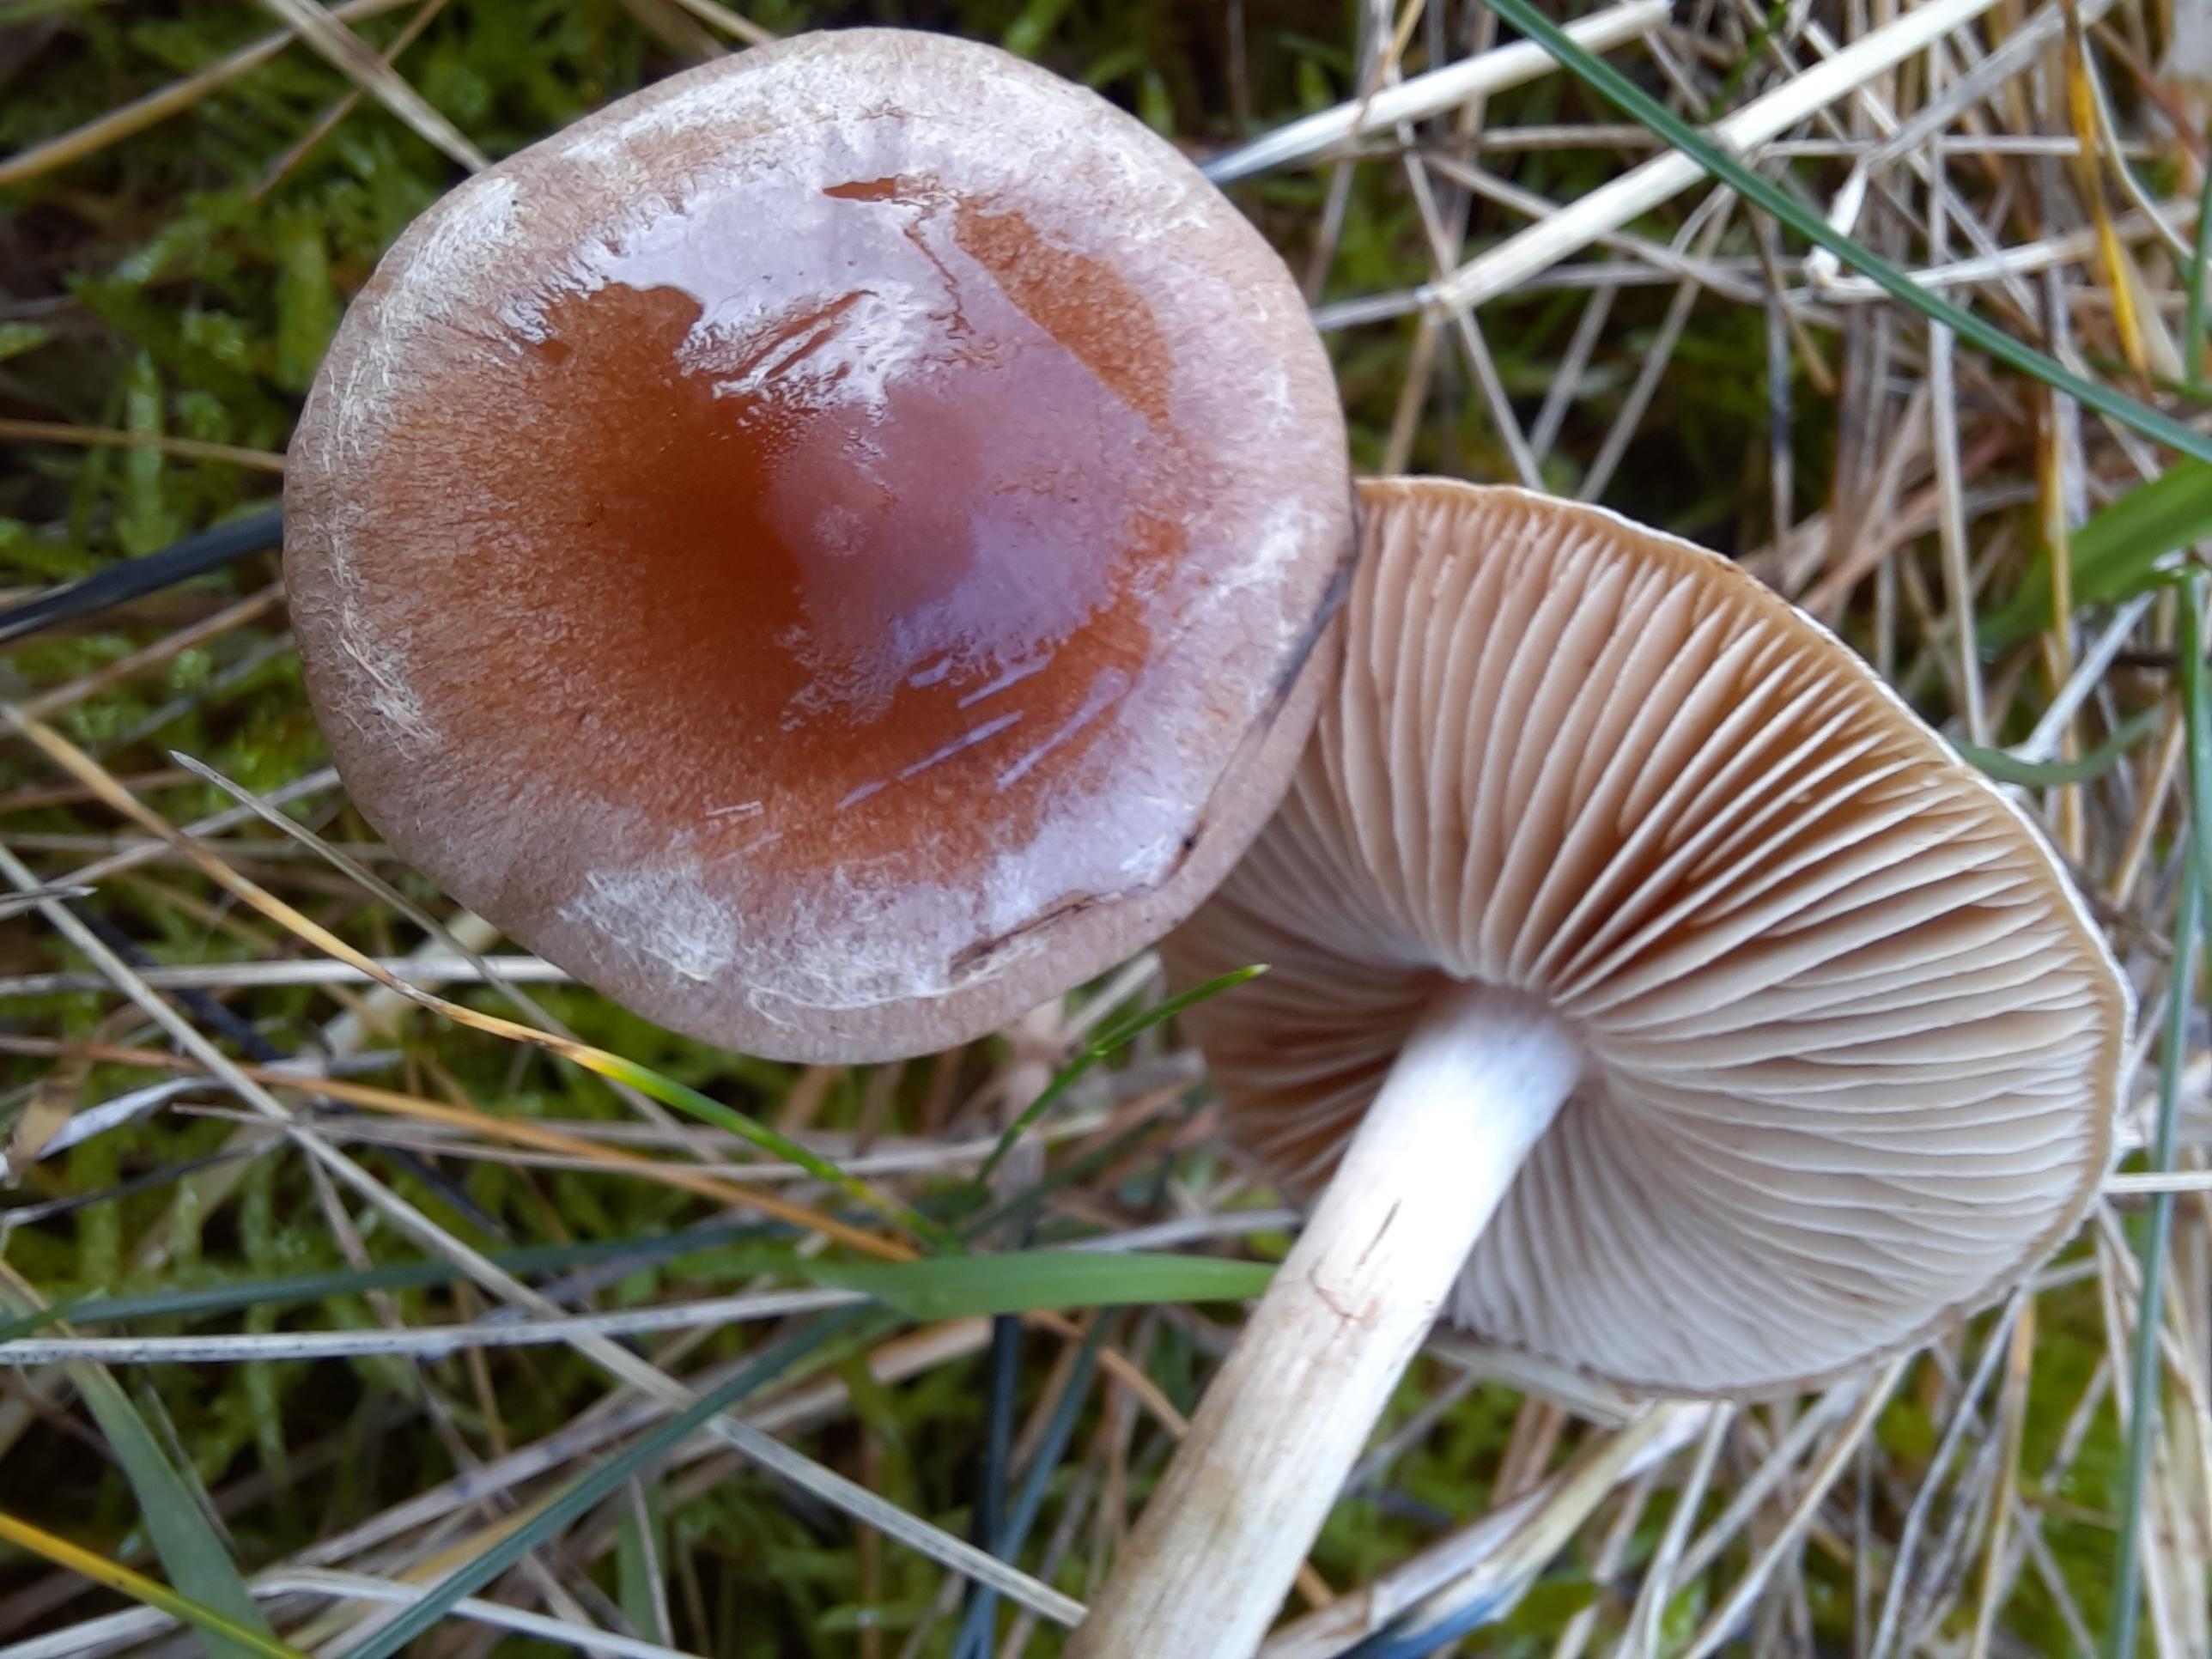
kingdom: Fungi
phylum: Basidiomycota
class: Agaricomycetes
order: Agaricales
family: Hymenogastraceae
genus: Hebeloma
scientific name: Hebeloma
